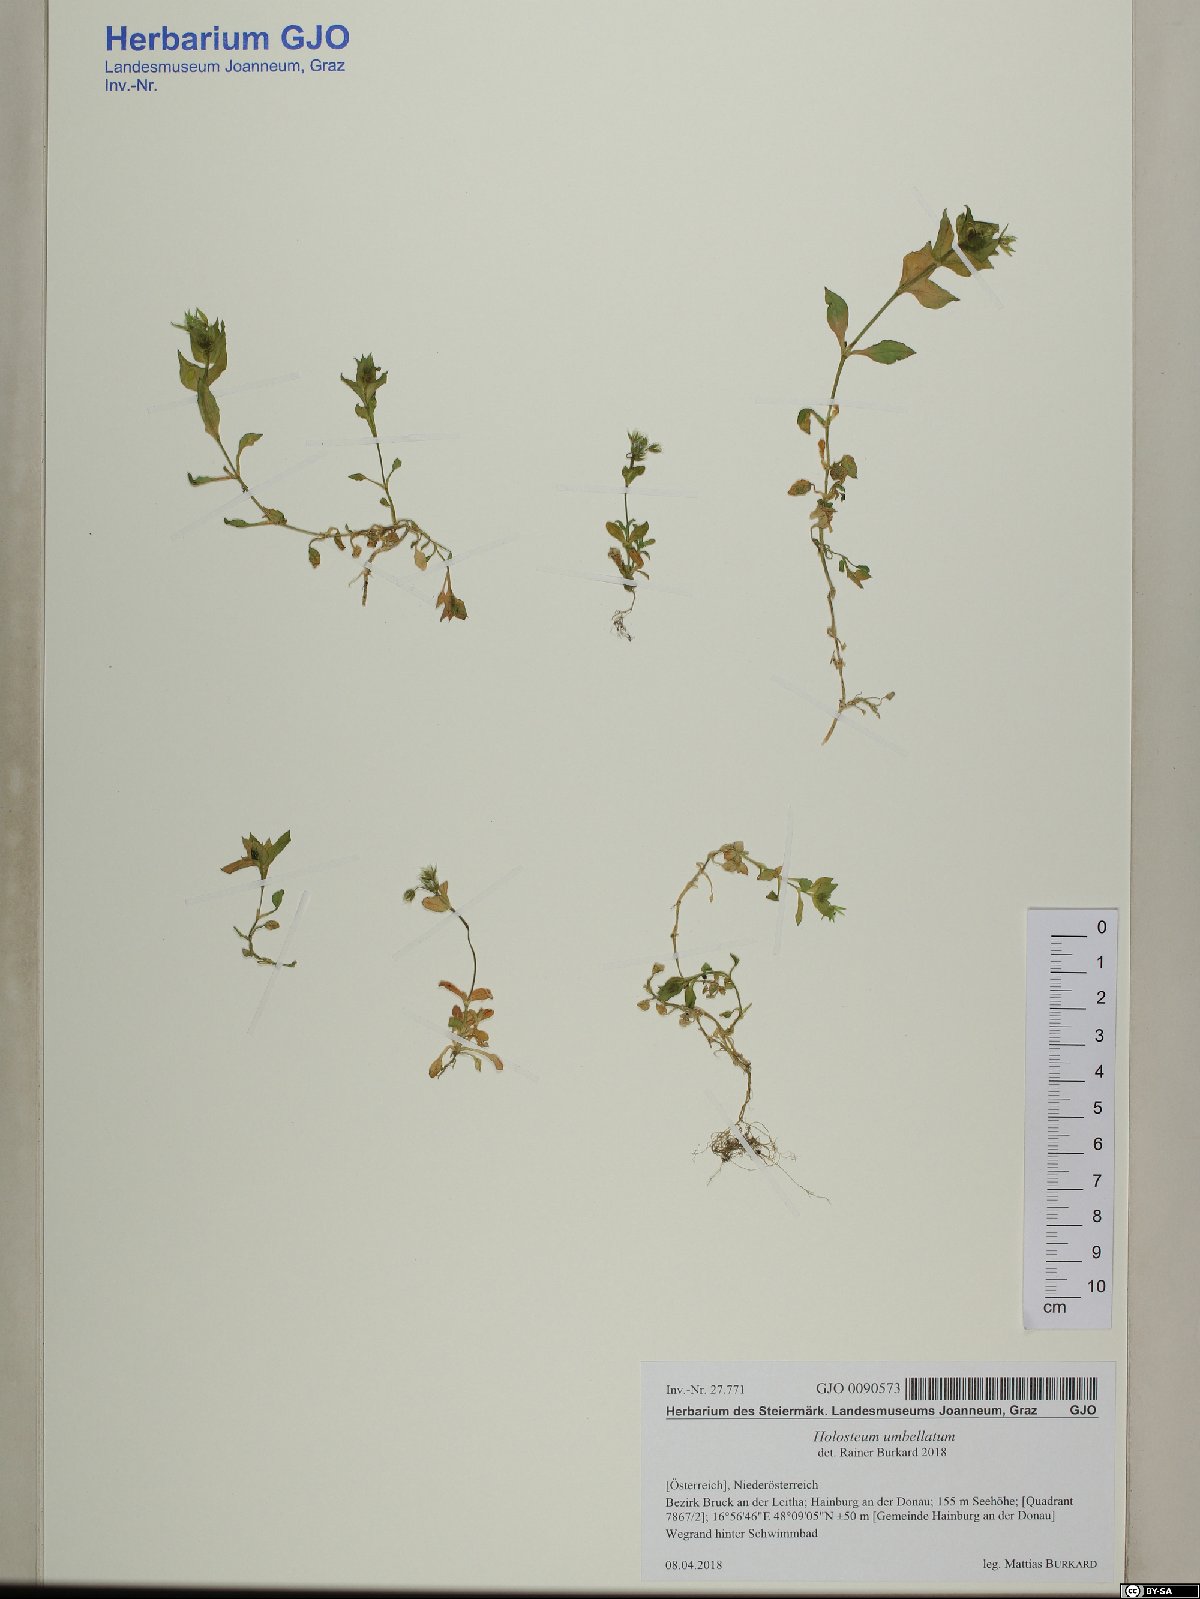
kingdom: Plantae
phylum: Tracheophyta
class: Magnoliopsida
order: Caryophyllales
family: Caryophyllaceae
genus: Stellaria
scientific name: Stellaria media
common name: Common chickweed
